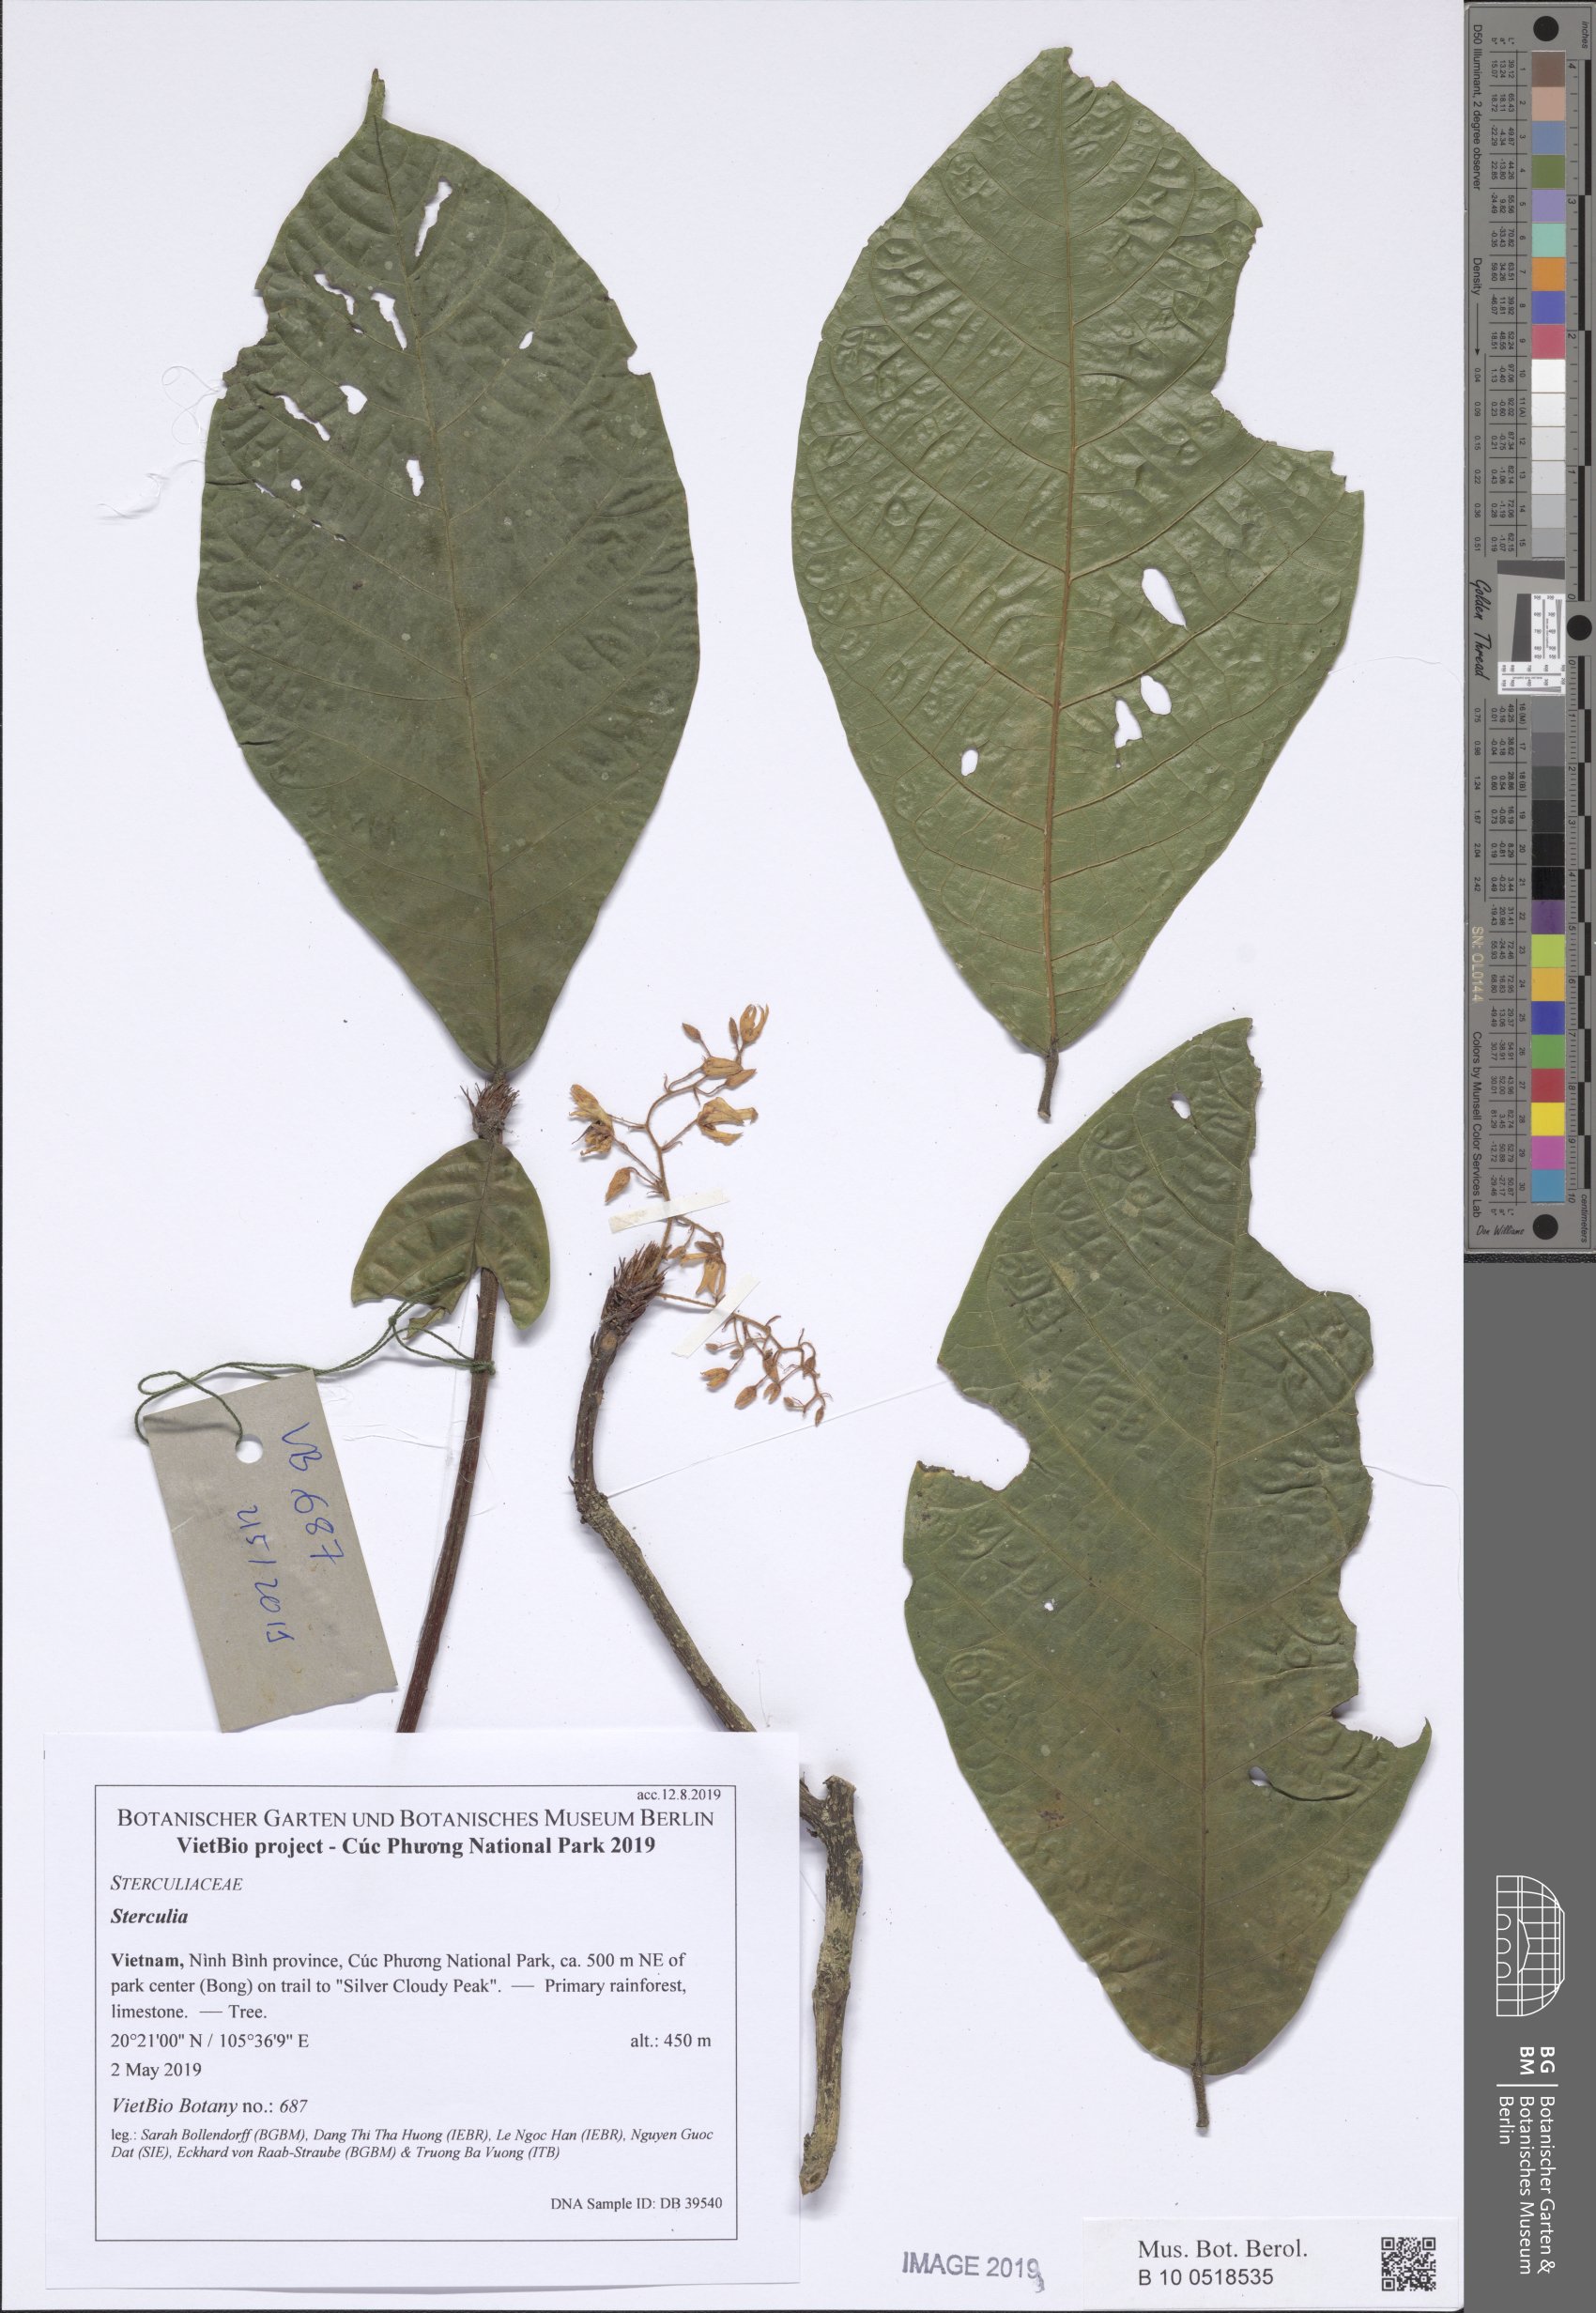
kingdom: Plantae
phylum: Tracheophyta
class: Magnoliopsida
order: Malvales
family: Malvaceae
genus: Sterculia
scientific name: Sterculia
